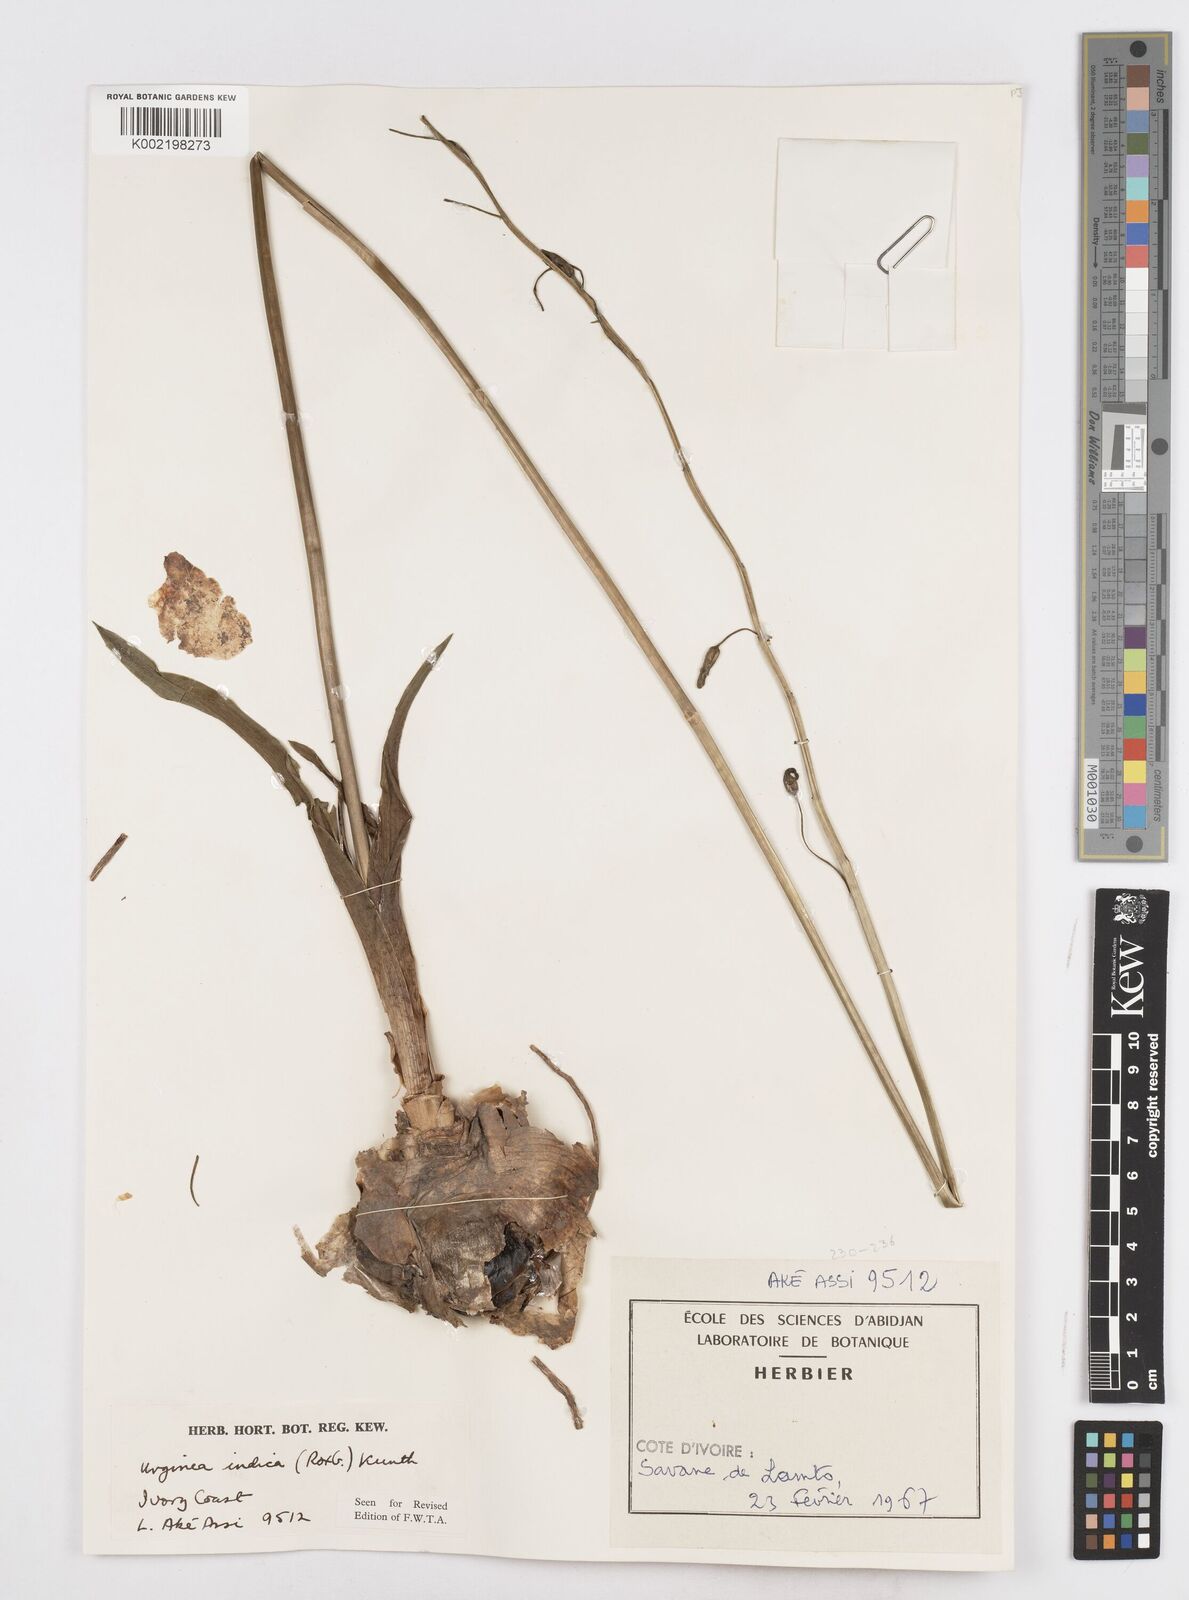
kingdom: Plantae
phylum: Tracheophyta
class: Liliopsida
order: Asparagales
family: Asparagaceae
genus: Drimia
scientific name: Drimia indica
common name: Indian-squill
